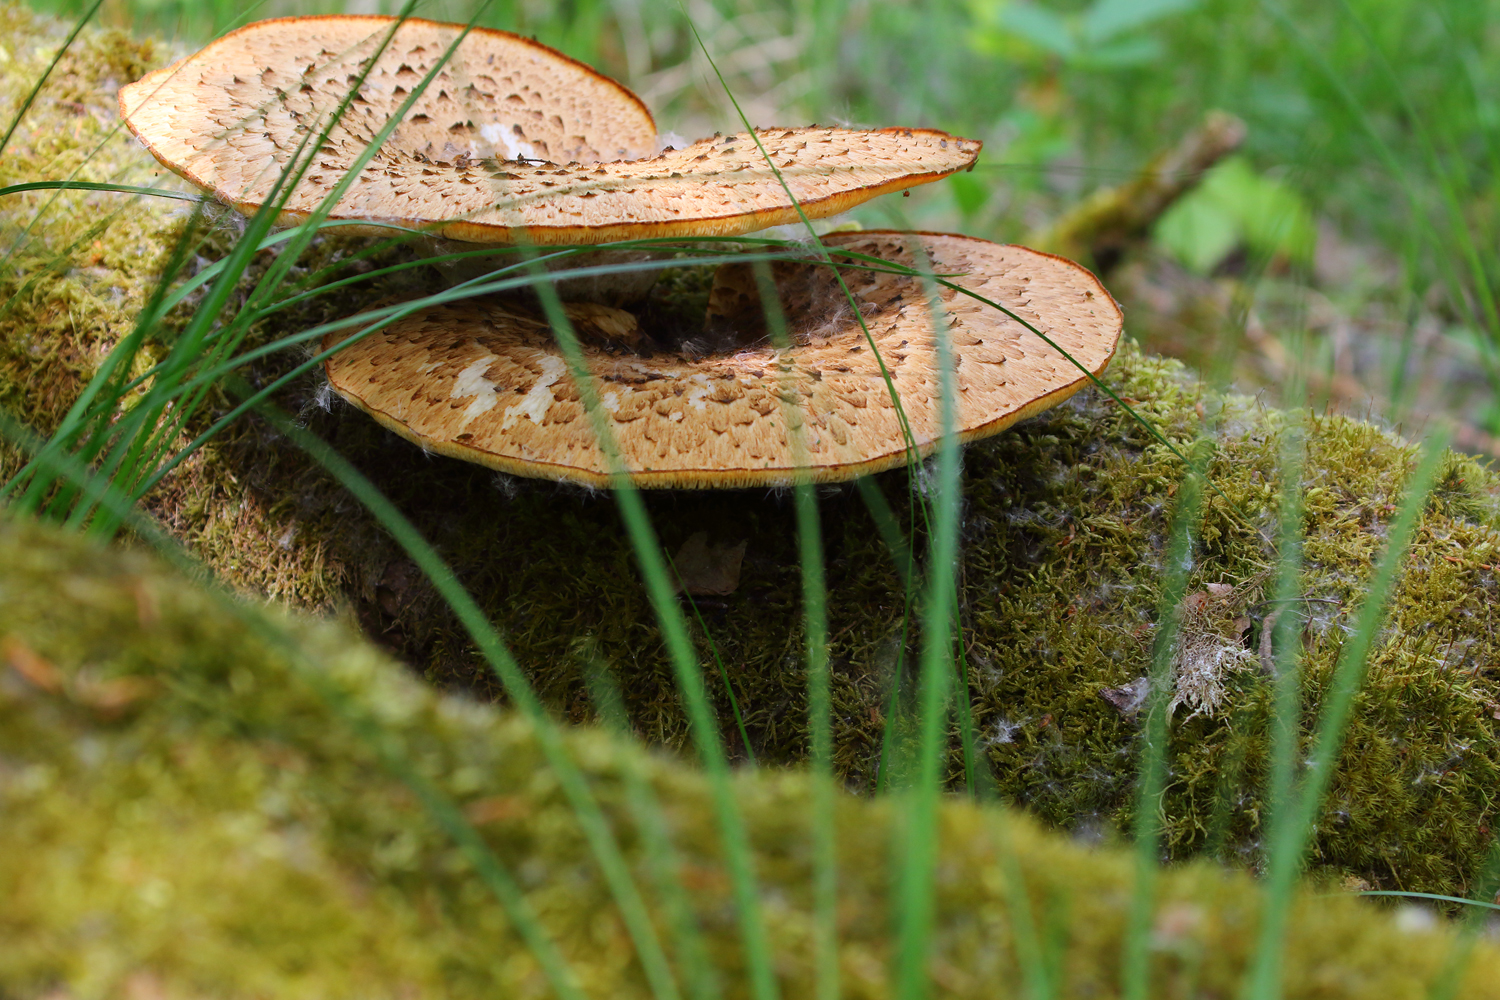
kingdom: Fungi
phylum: Basidiomycota
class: Agaricomycetes
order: Polyporales
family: Polyporaceae
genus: Cerioporus
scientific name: Cerioporus squamosus
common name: skællet stilkporesvamp
